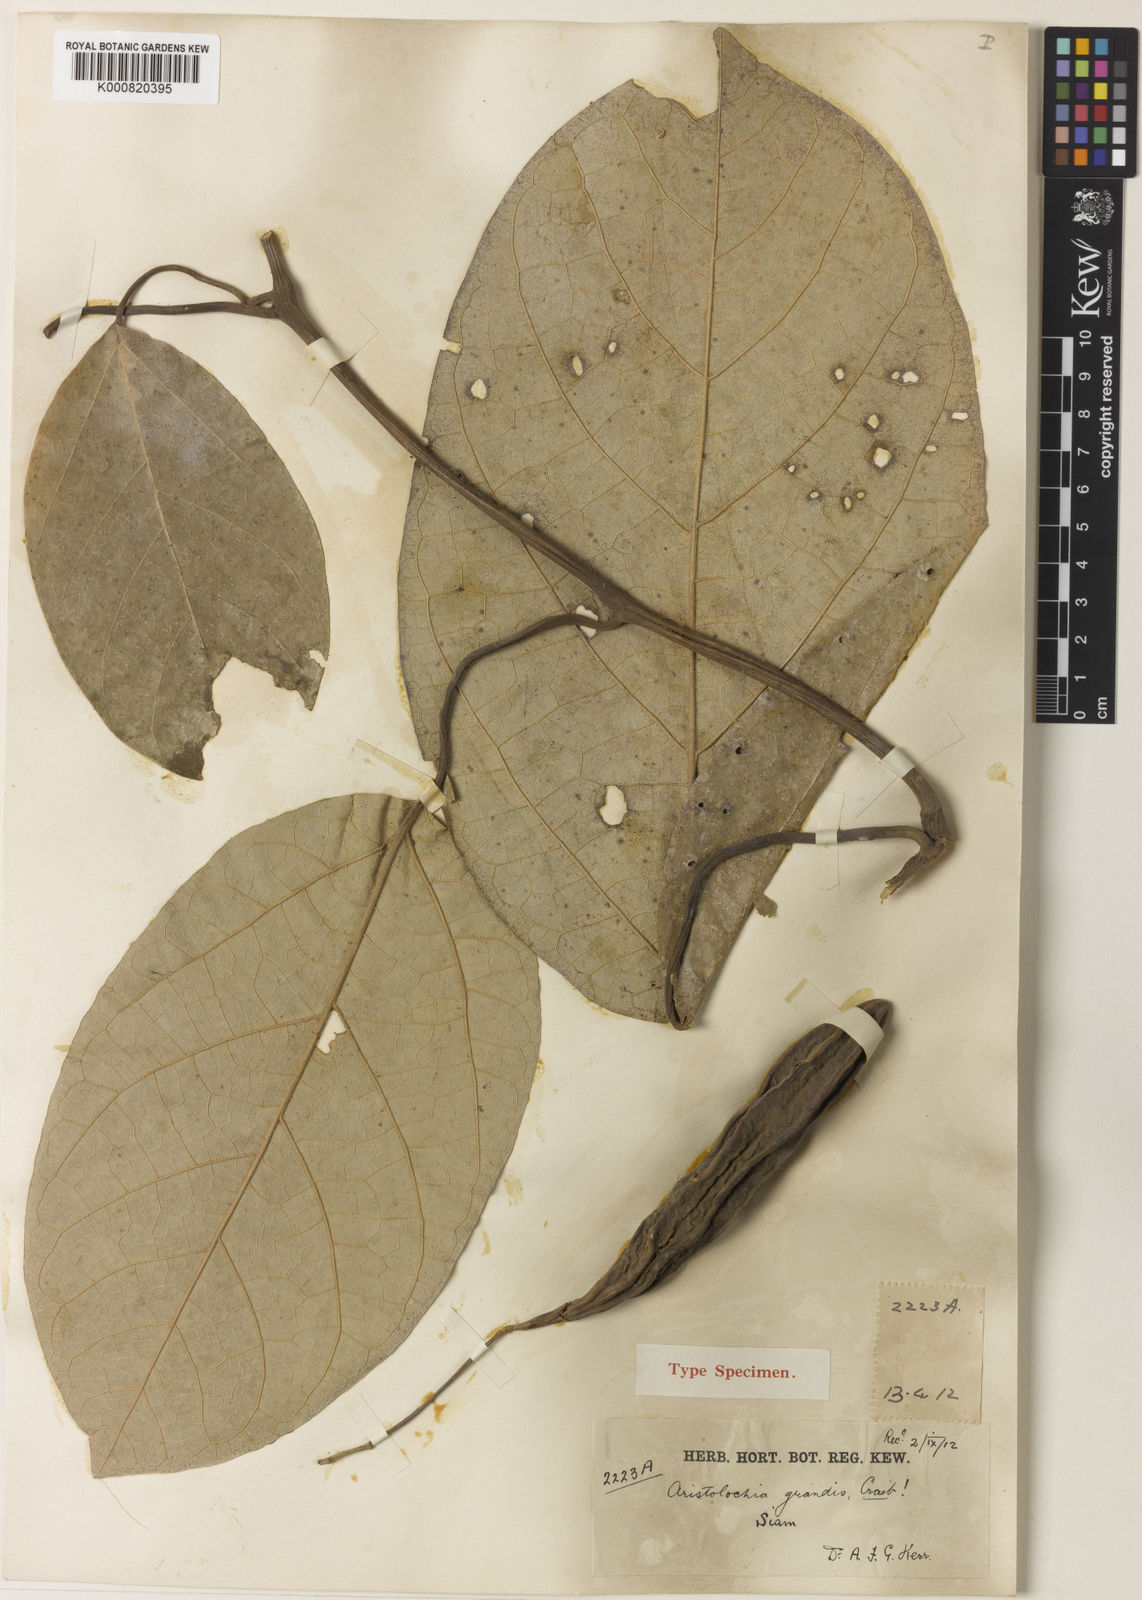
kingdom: Plantae
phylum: Tracheophyta
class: Magnoliopsida
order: Piperales
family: Aristolochiaceae
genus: Isotrema
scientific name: Isotrema
